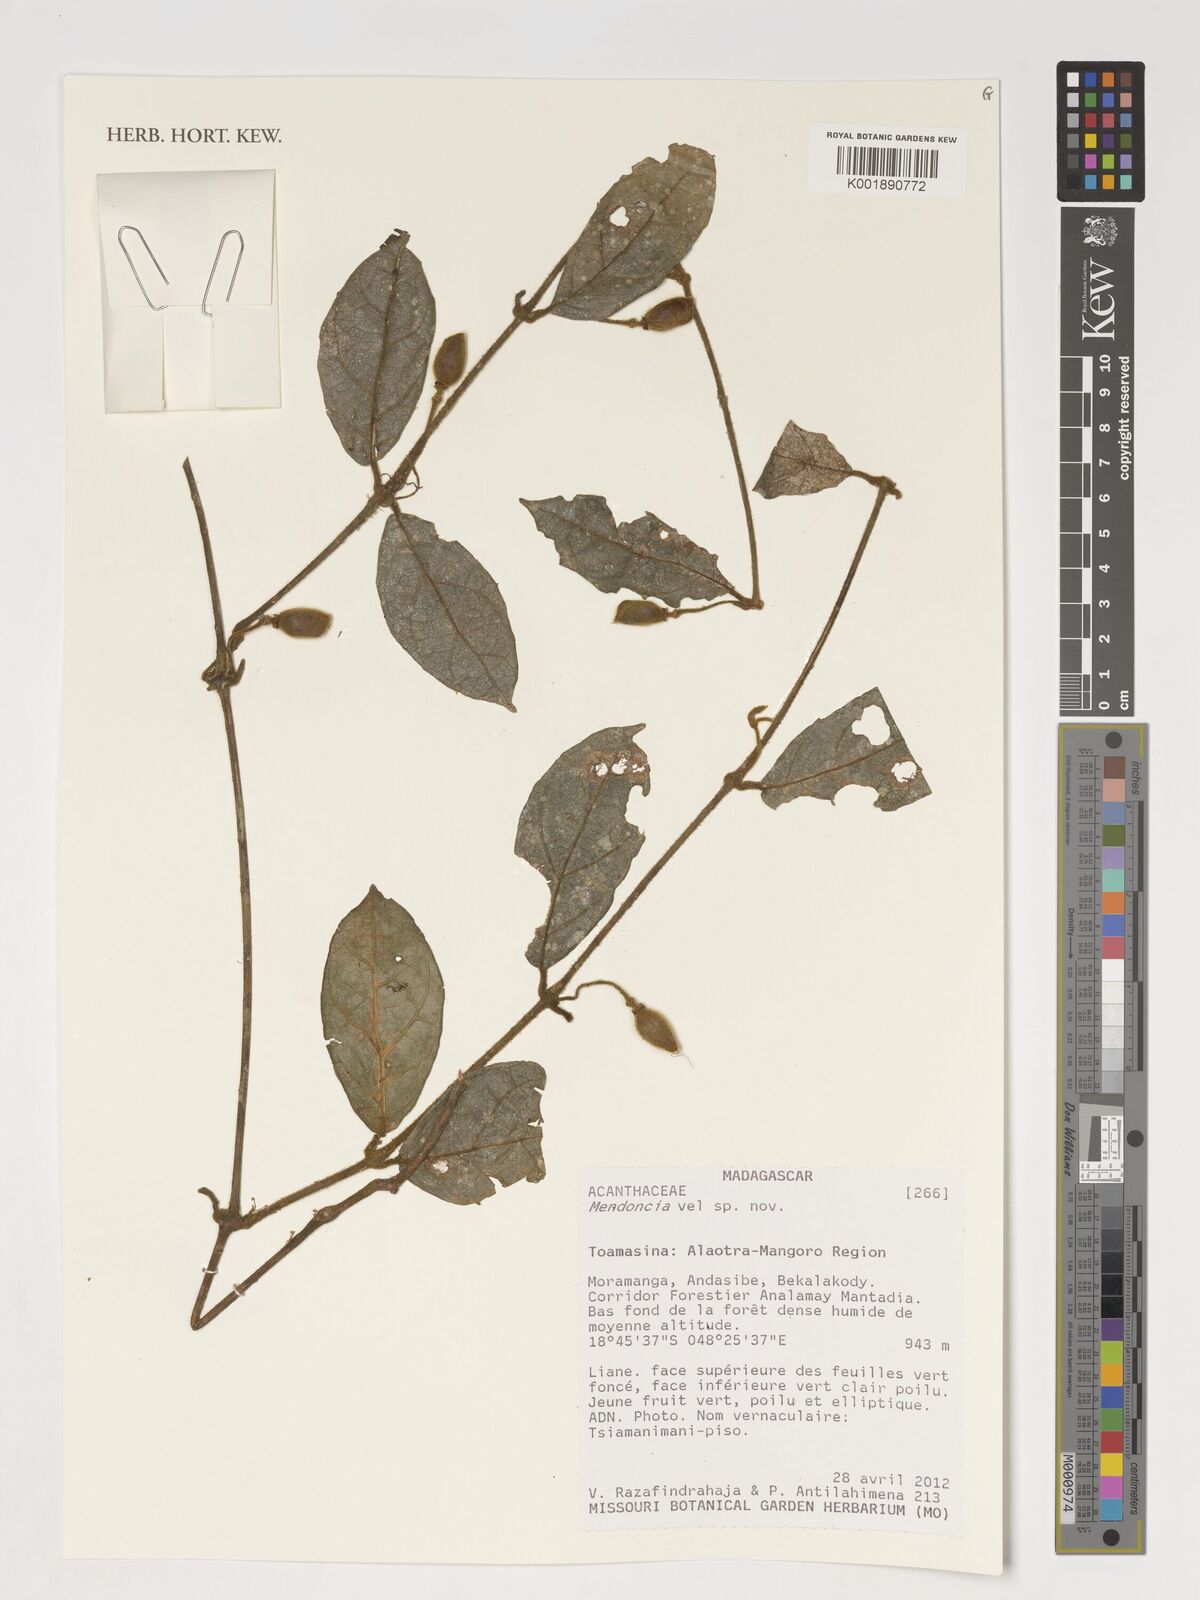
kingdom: Plantae
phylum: Tracheophyta
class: Magnoliopsida
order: Lamiales
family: Acanthaceae
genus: Mendoncia
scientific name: Mendoncia
